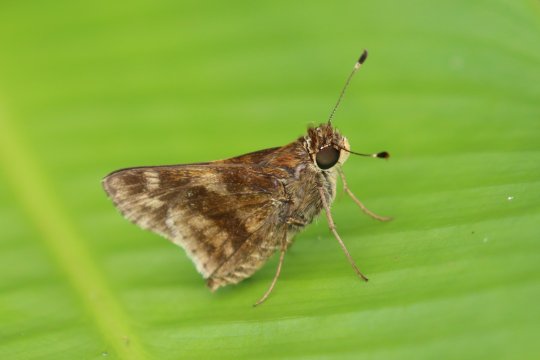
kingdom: Animalia
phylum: Arthropoda
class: Insecta
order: Lepidoptera
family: Hesperiidae
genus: Pompeius
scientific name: Pompeius pompeius
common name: Pompeius Skipper
